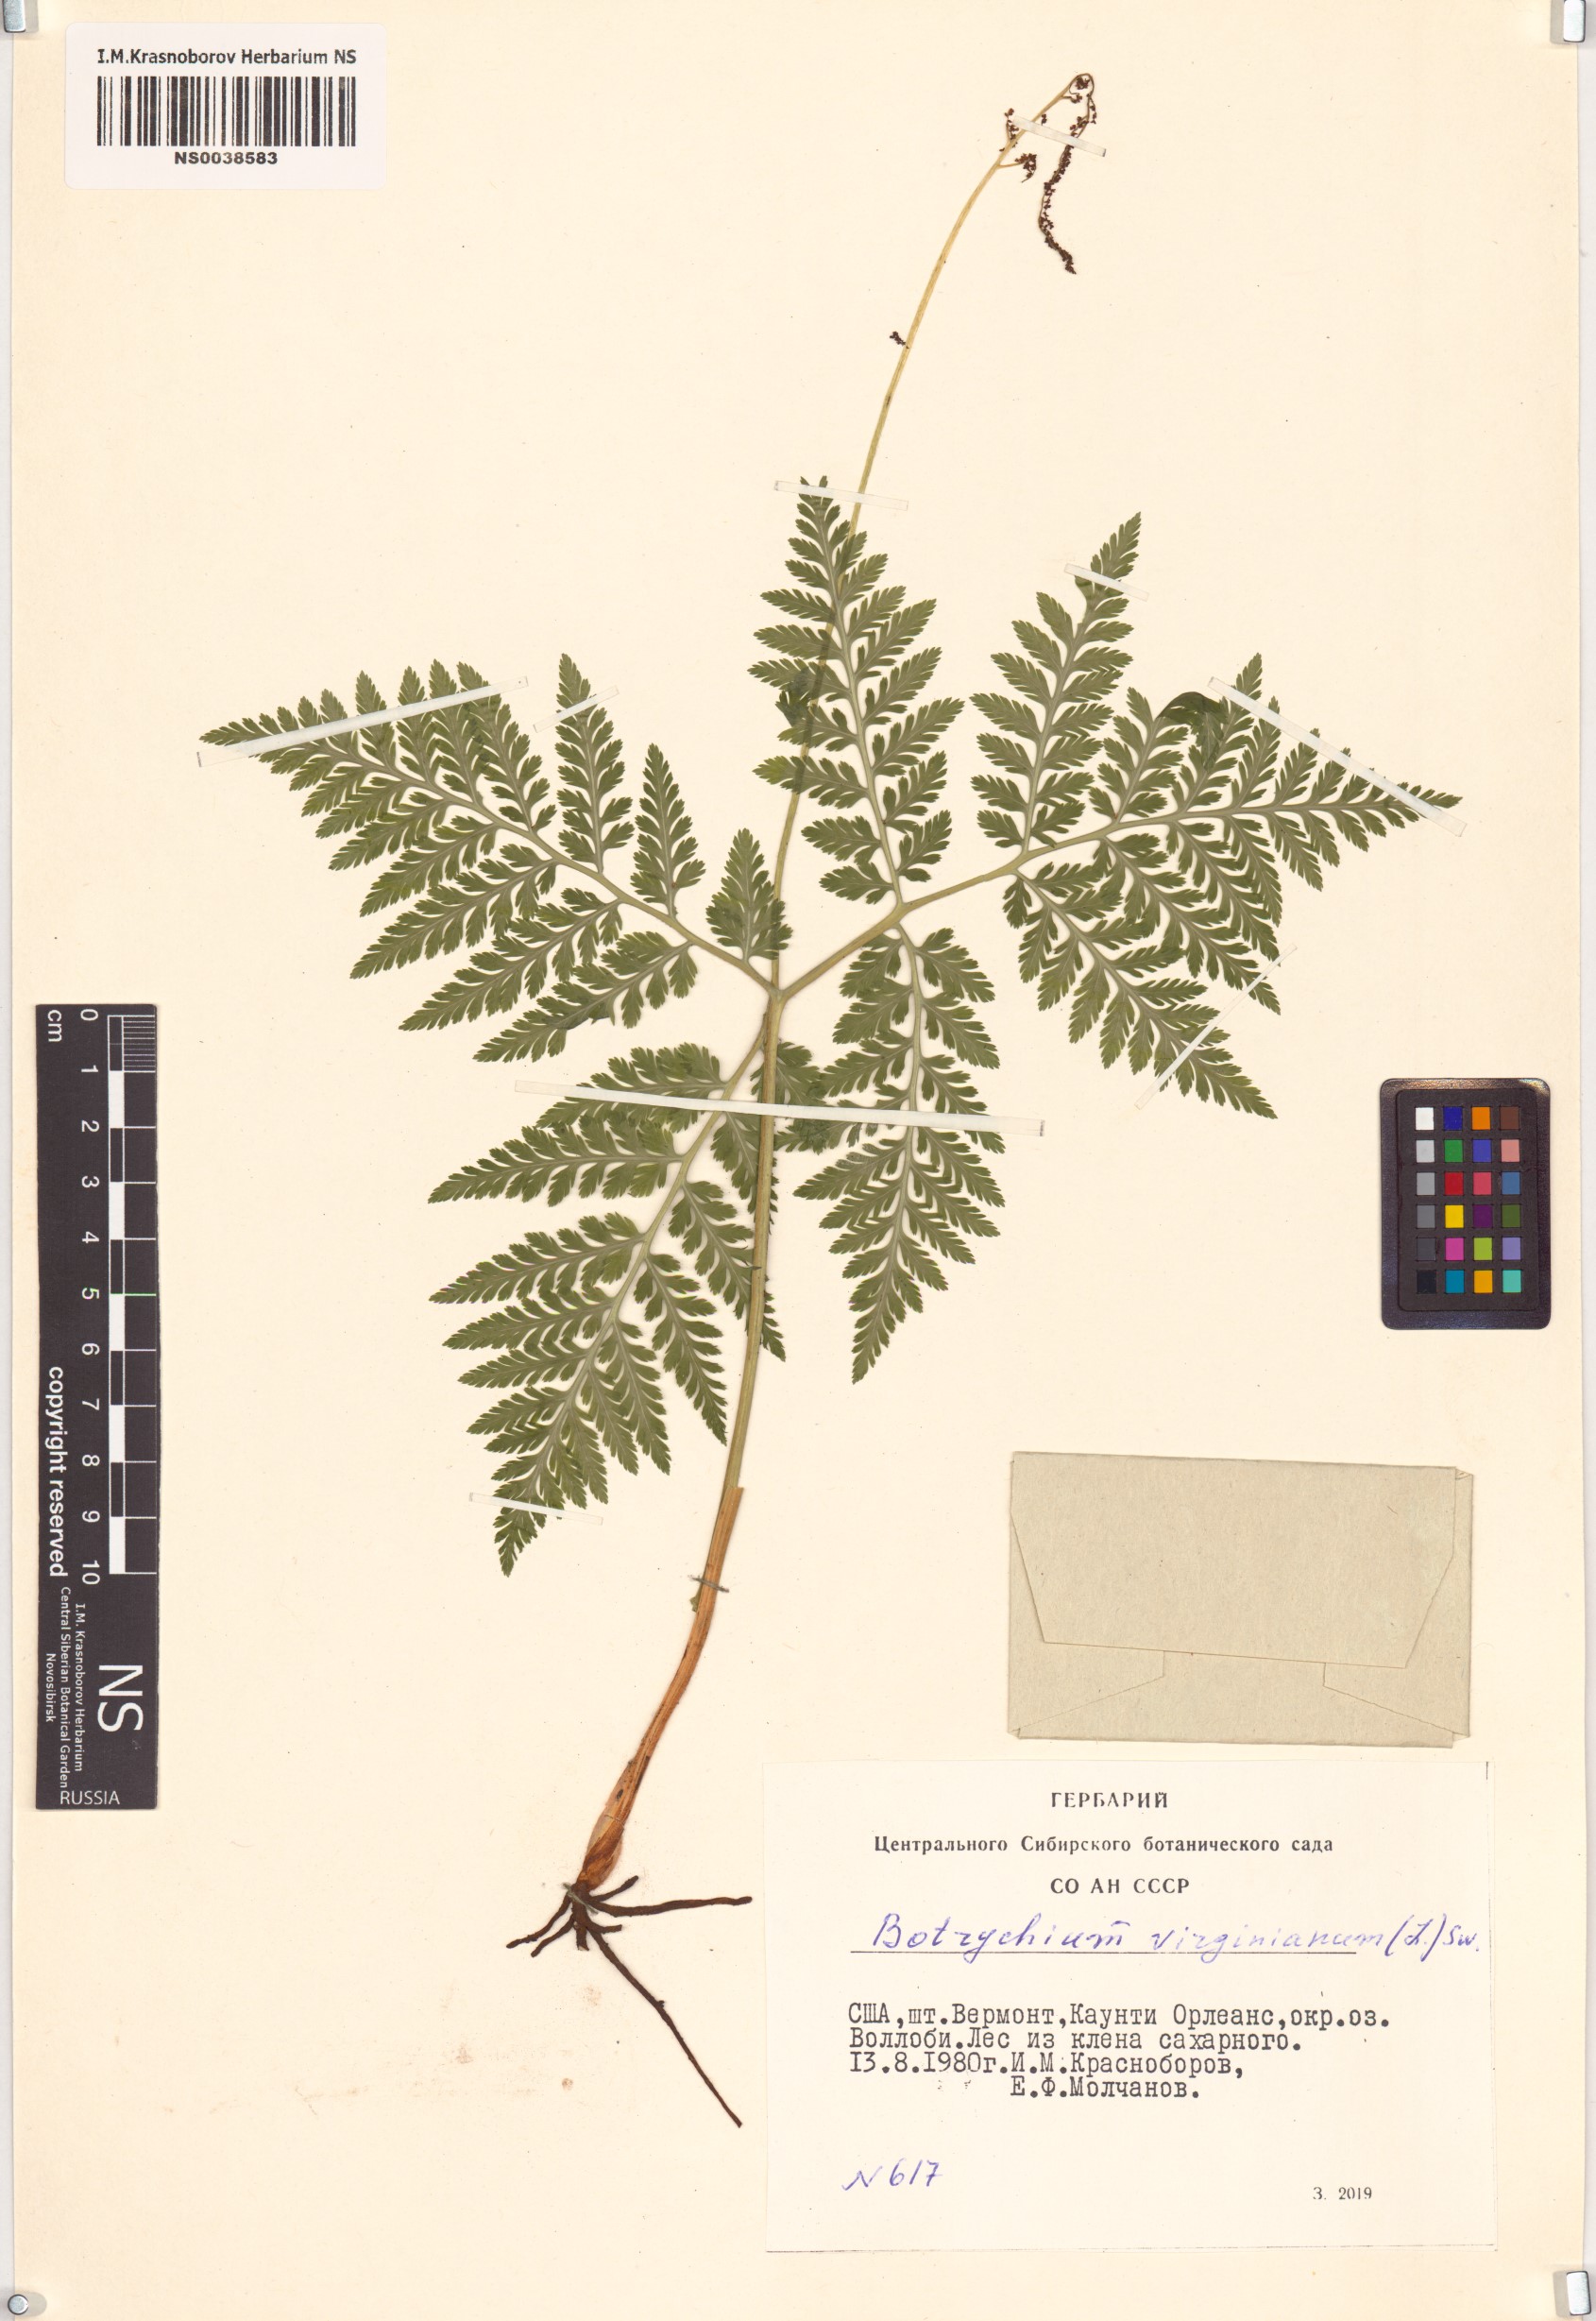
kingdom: Plantae
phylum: Tracheophyta
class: Polypodiopsida
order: Ophioglossales
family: Ophioglossaceae
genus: Botrypus
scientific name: Botrypus virginianus
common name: Common grapefern
